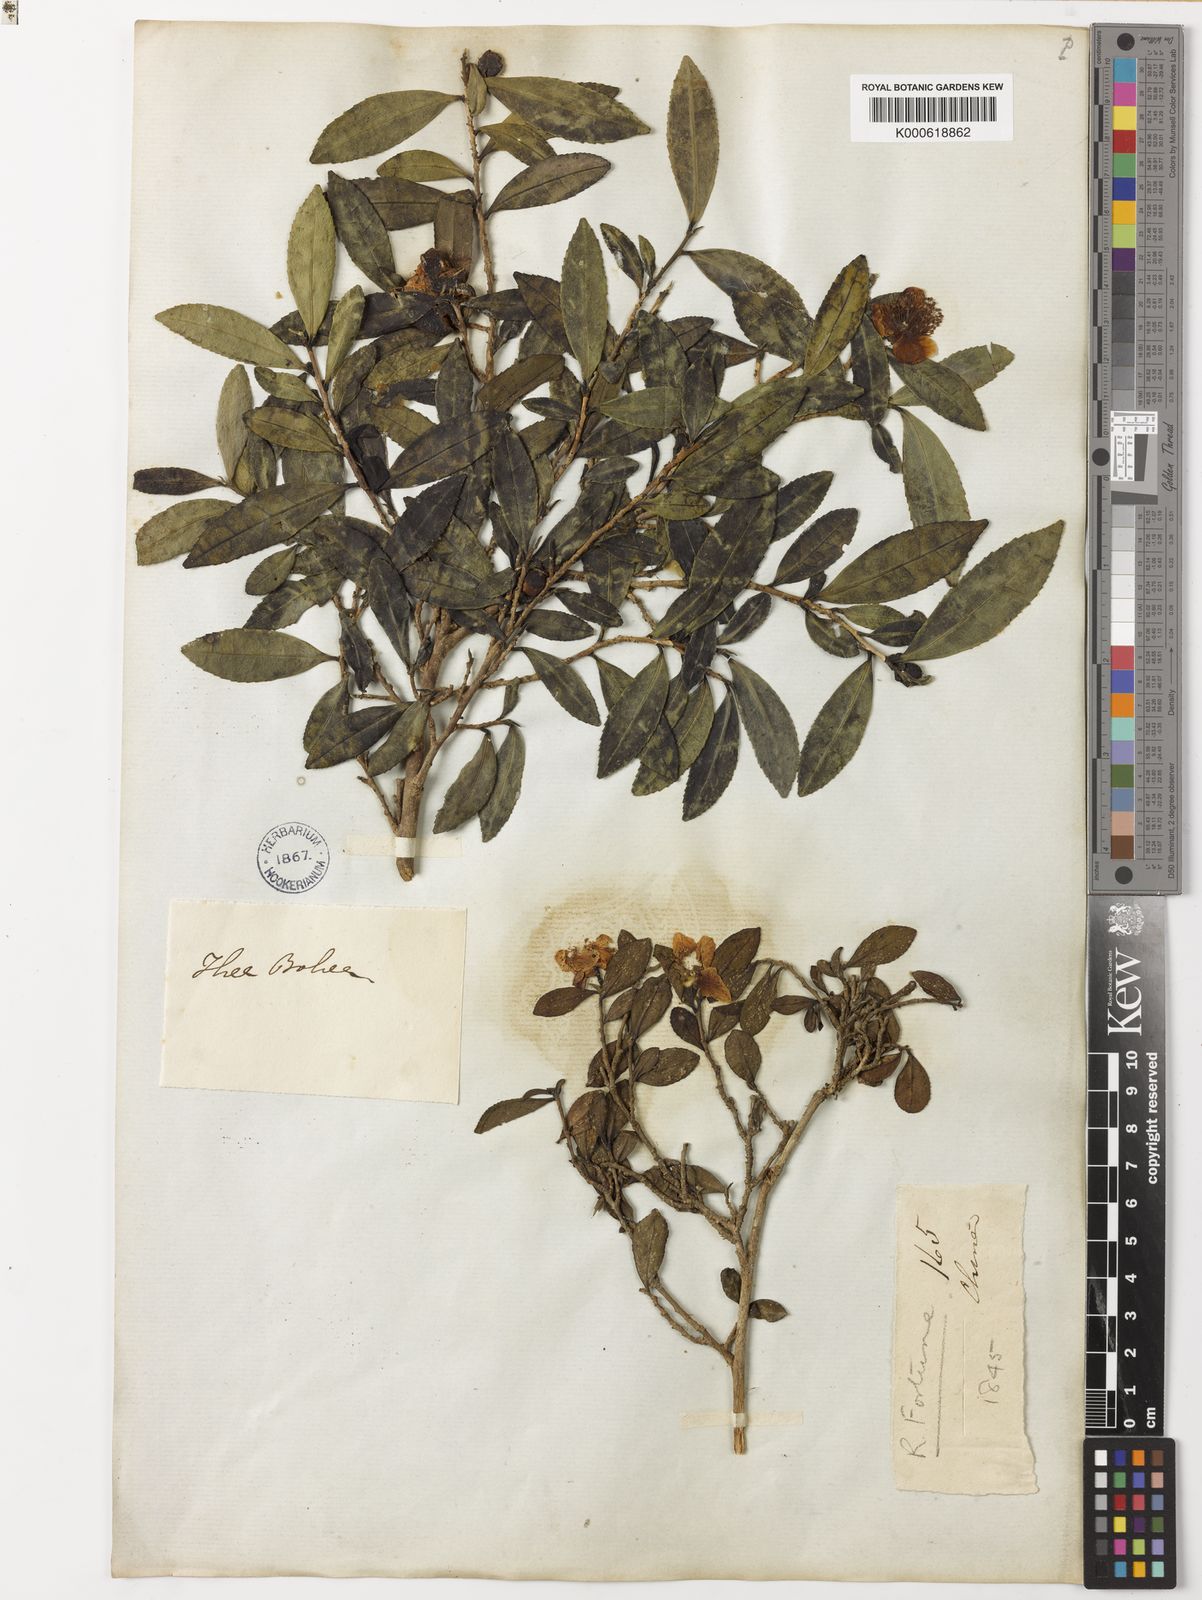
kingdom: Plantae
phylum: Tracheophyta
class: Magnoliopsida
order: Ericales
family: Theaceae
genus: Camellia
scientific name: Camellia
